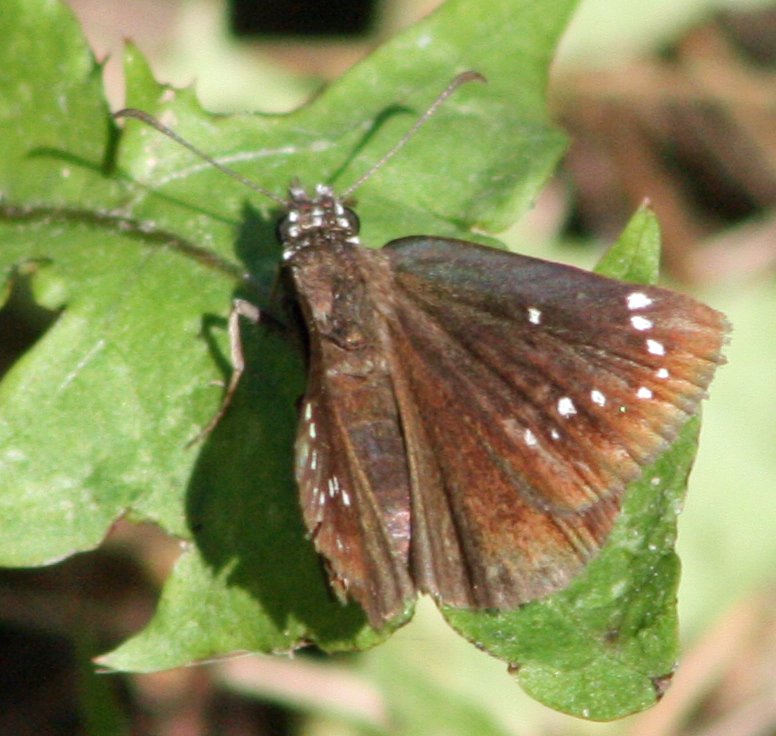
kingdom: Animalia
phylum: Arthropoda
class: Insecta
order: Lepidoptera
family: Hesperiidae
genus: Pholisora
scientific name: Pholisora catullus
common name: Common Sootywing
